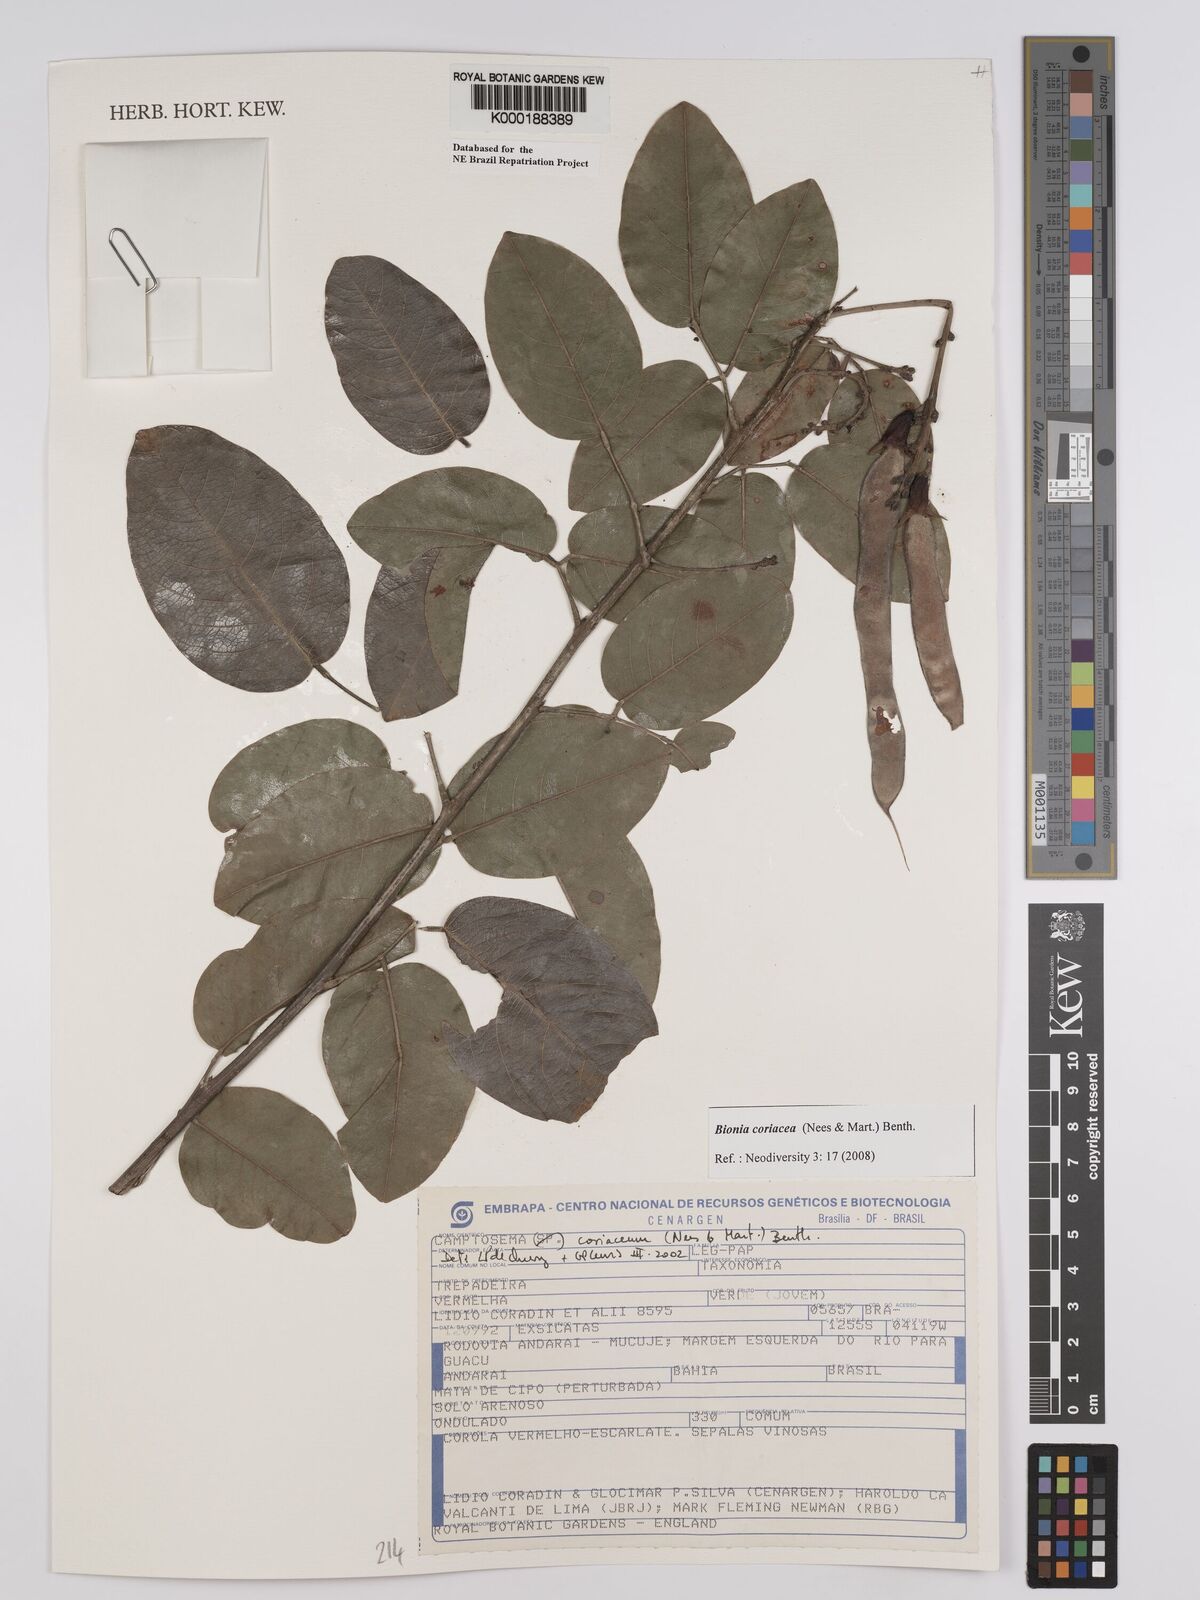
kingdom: Plantae
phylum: Tracheophyta
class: Magnoliopsida
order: Fabales
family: Fabaceae
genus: Camptosema
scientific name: Camptosema coriaceum
